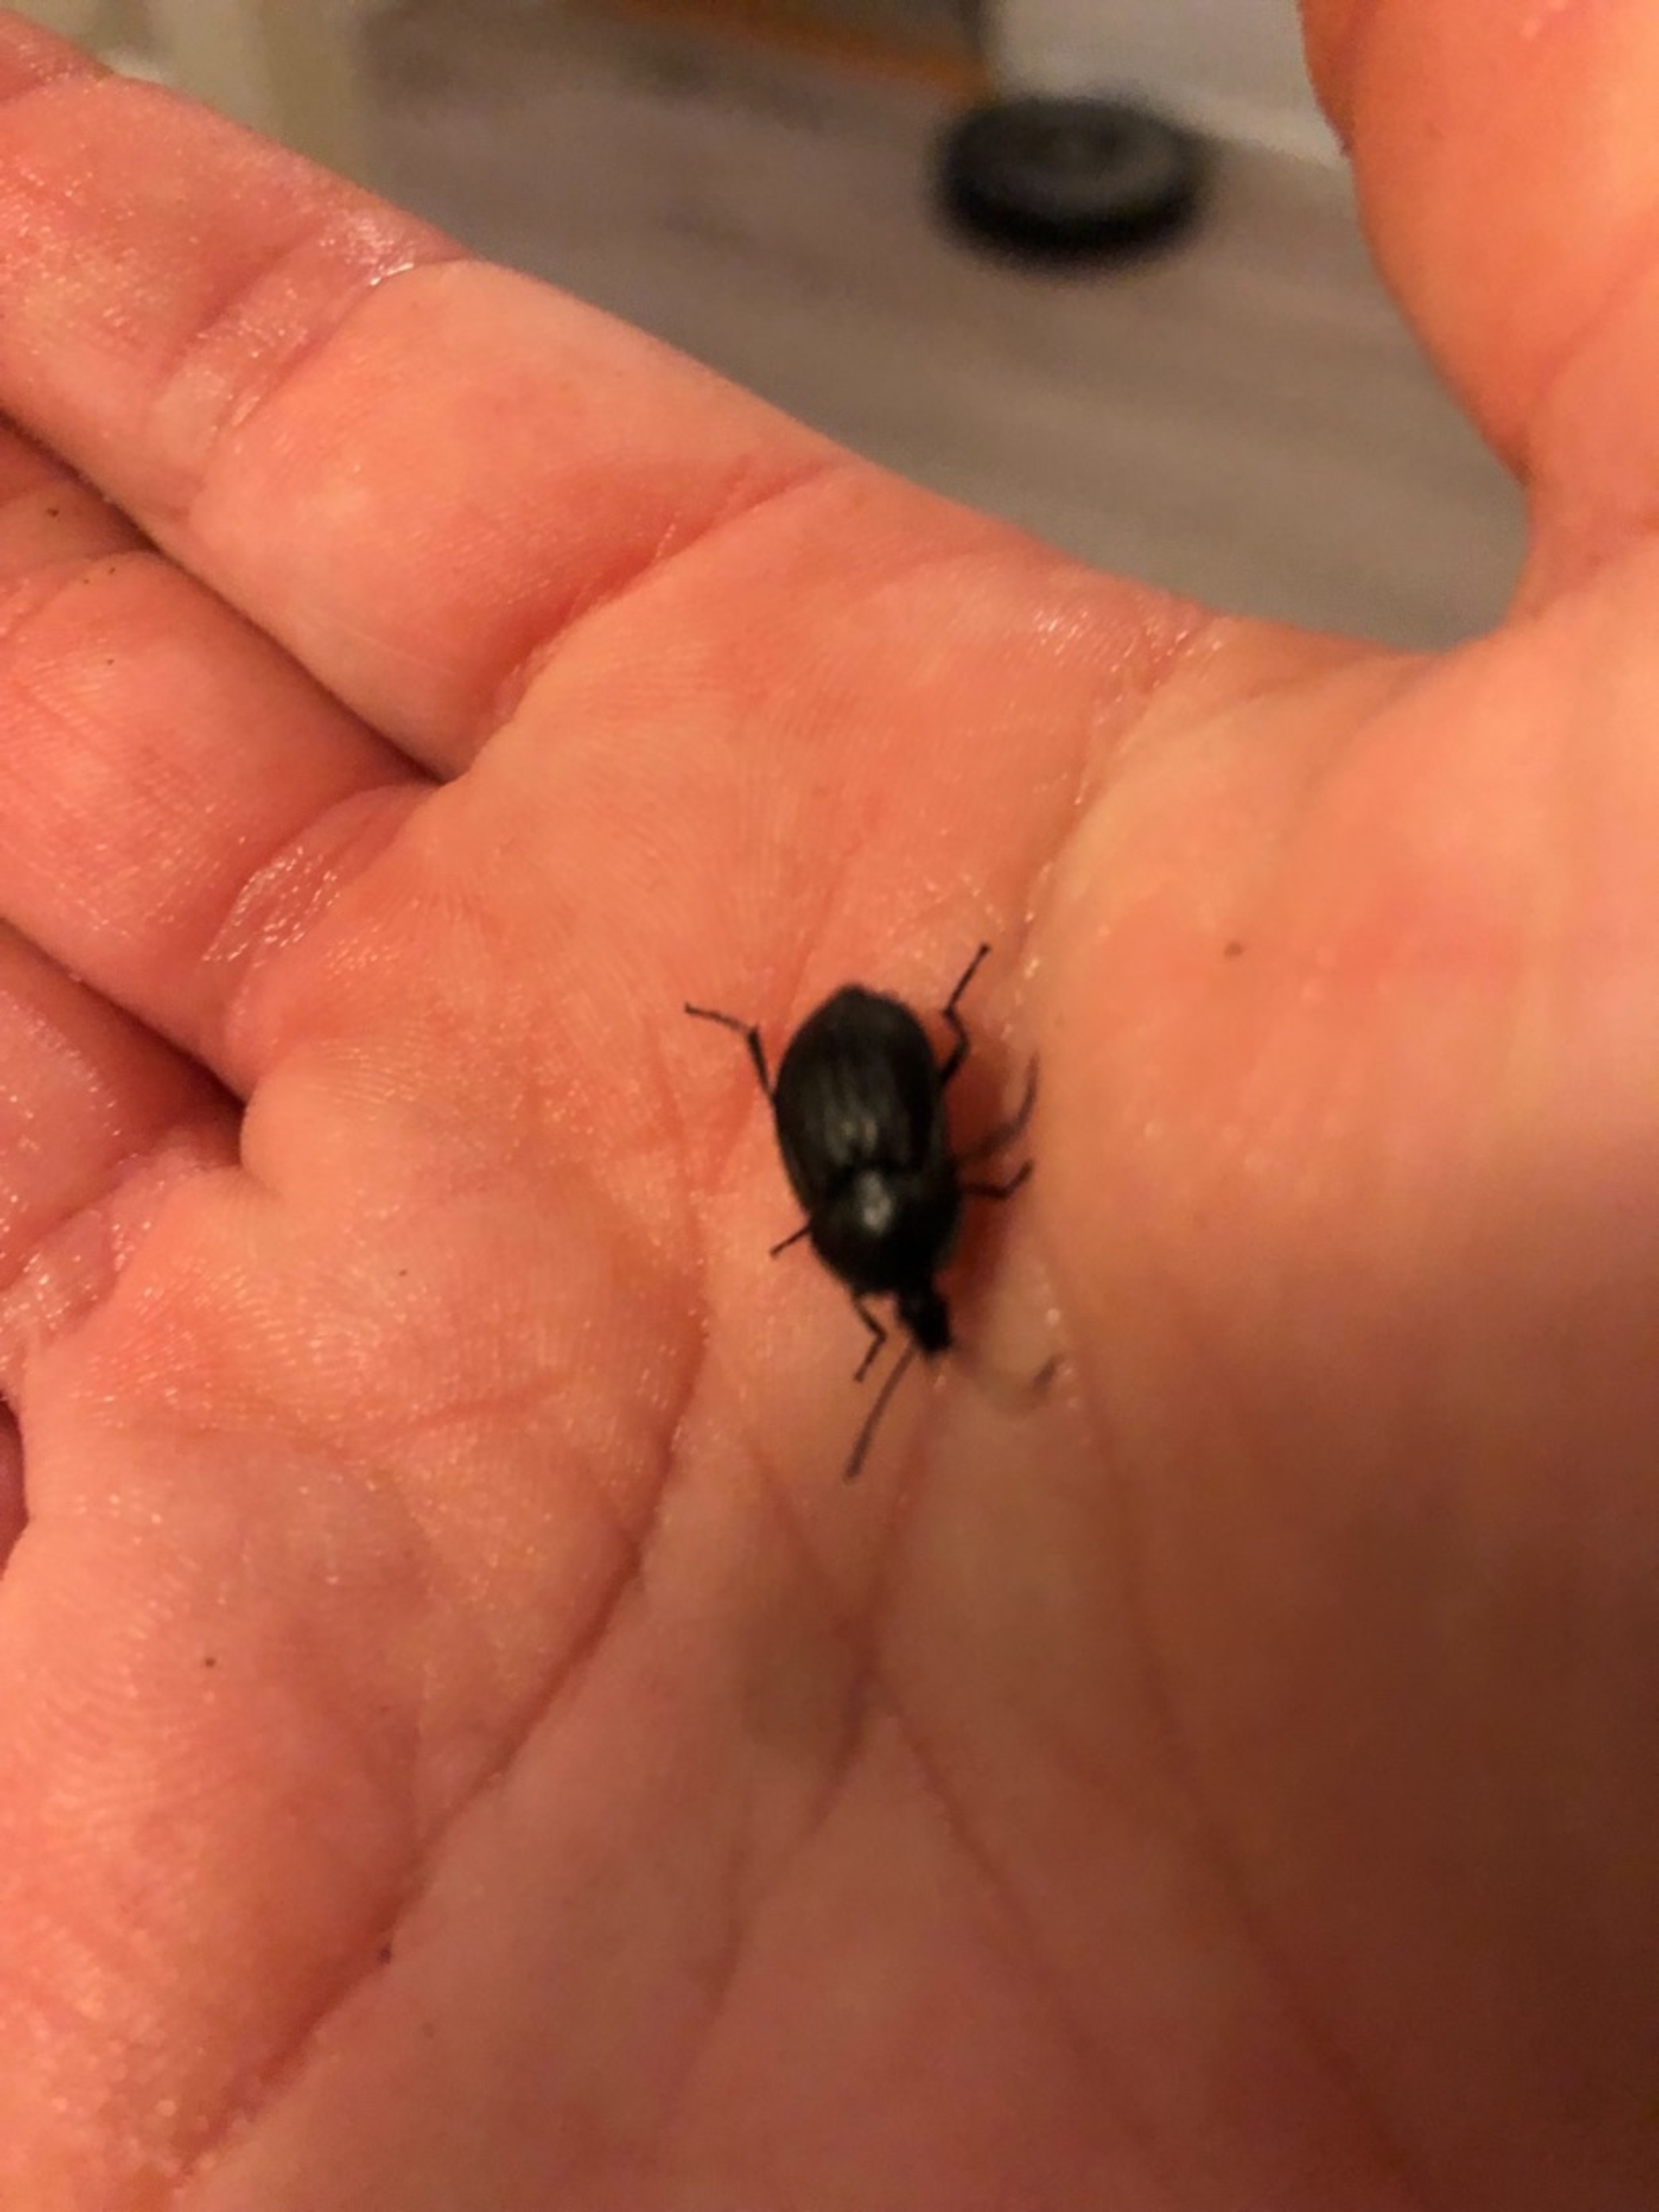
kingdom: Animalia
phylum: Arthropoda
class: Insecta
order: Coleoptera
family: Staphylinidae
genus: Silpha
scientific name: Silpha atrata
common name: Snegleådselbille
